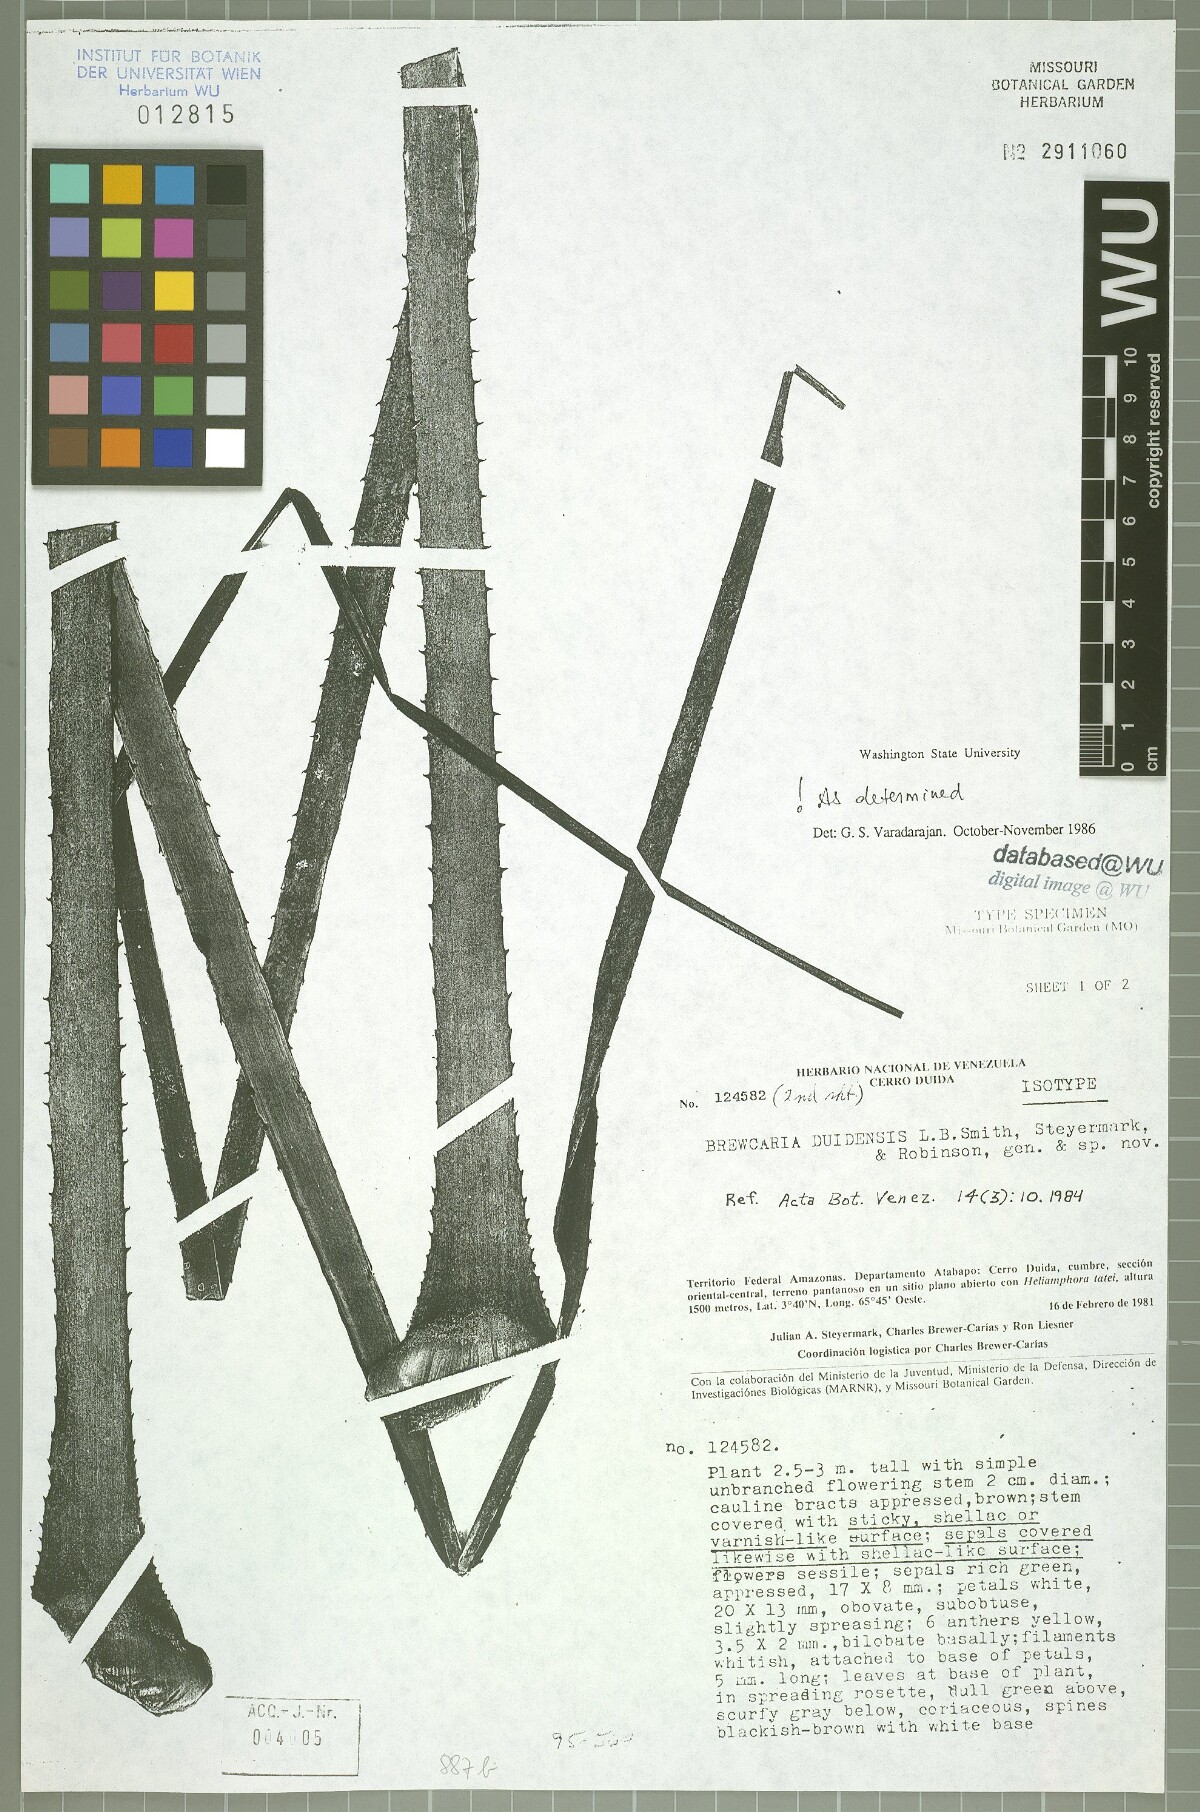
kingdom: Plantae
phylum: Tracheophyta
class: Liliopsida
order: Poales
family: Bromeliaceae
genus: Navia
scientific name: Navia duidensis
